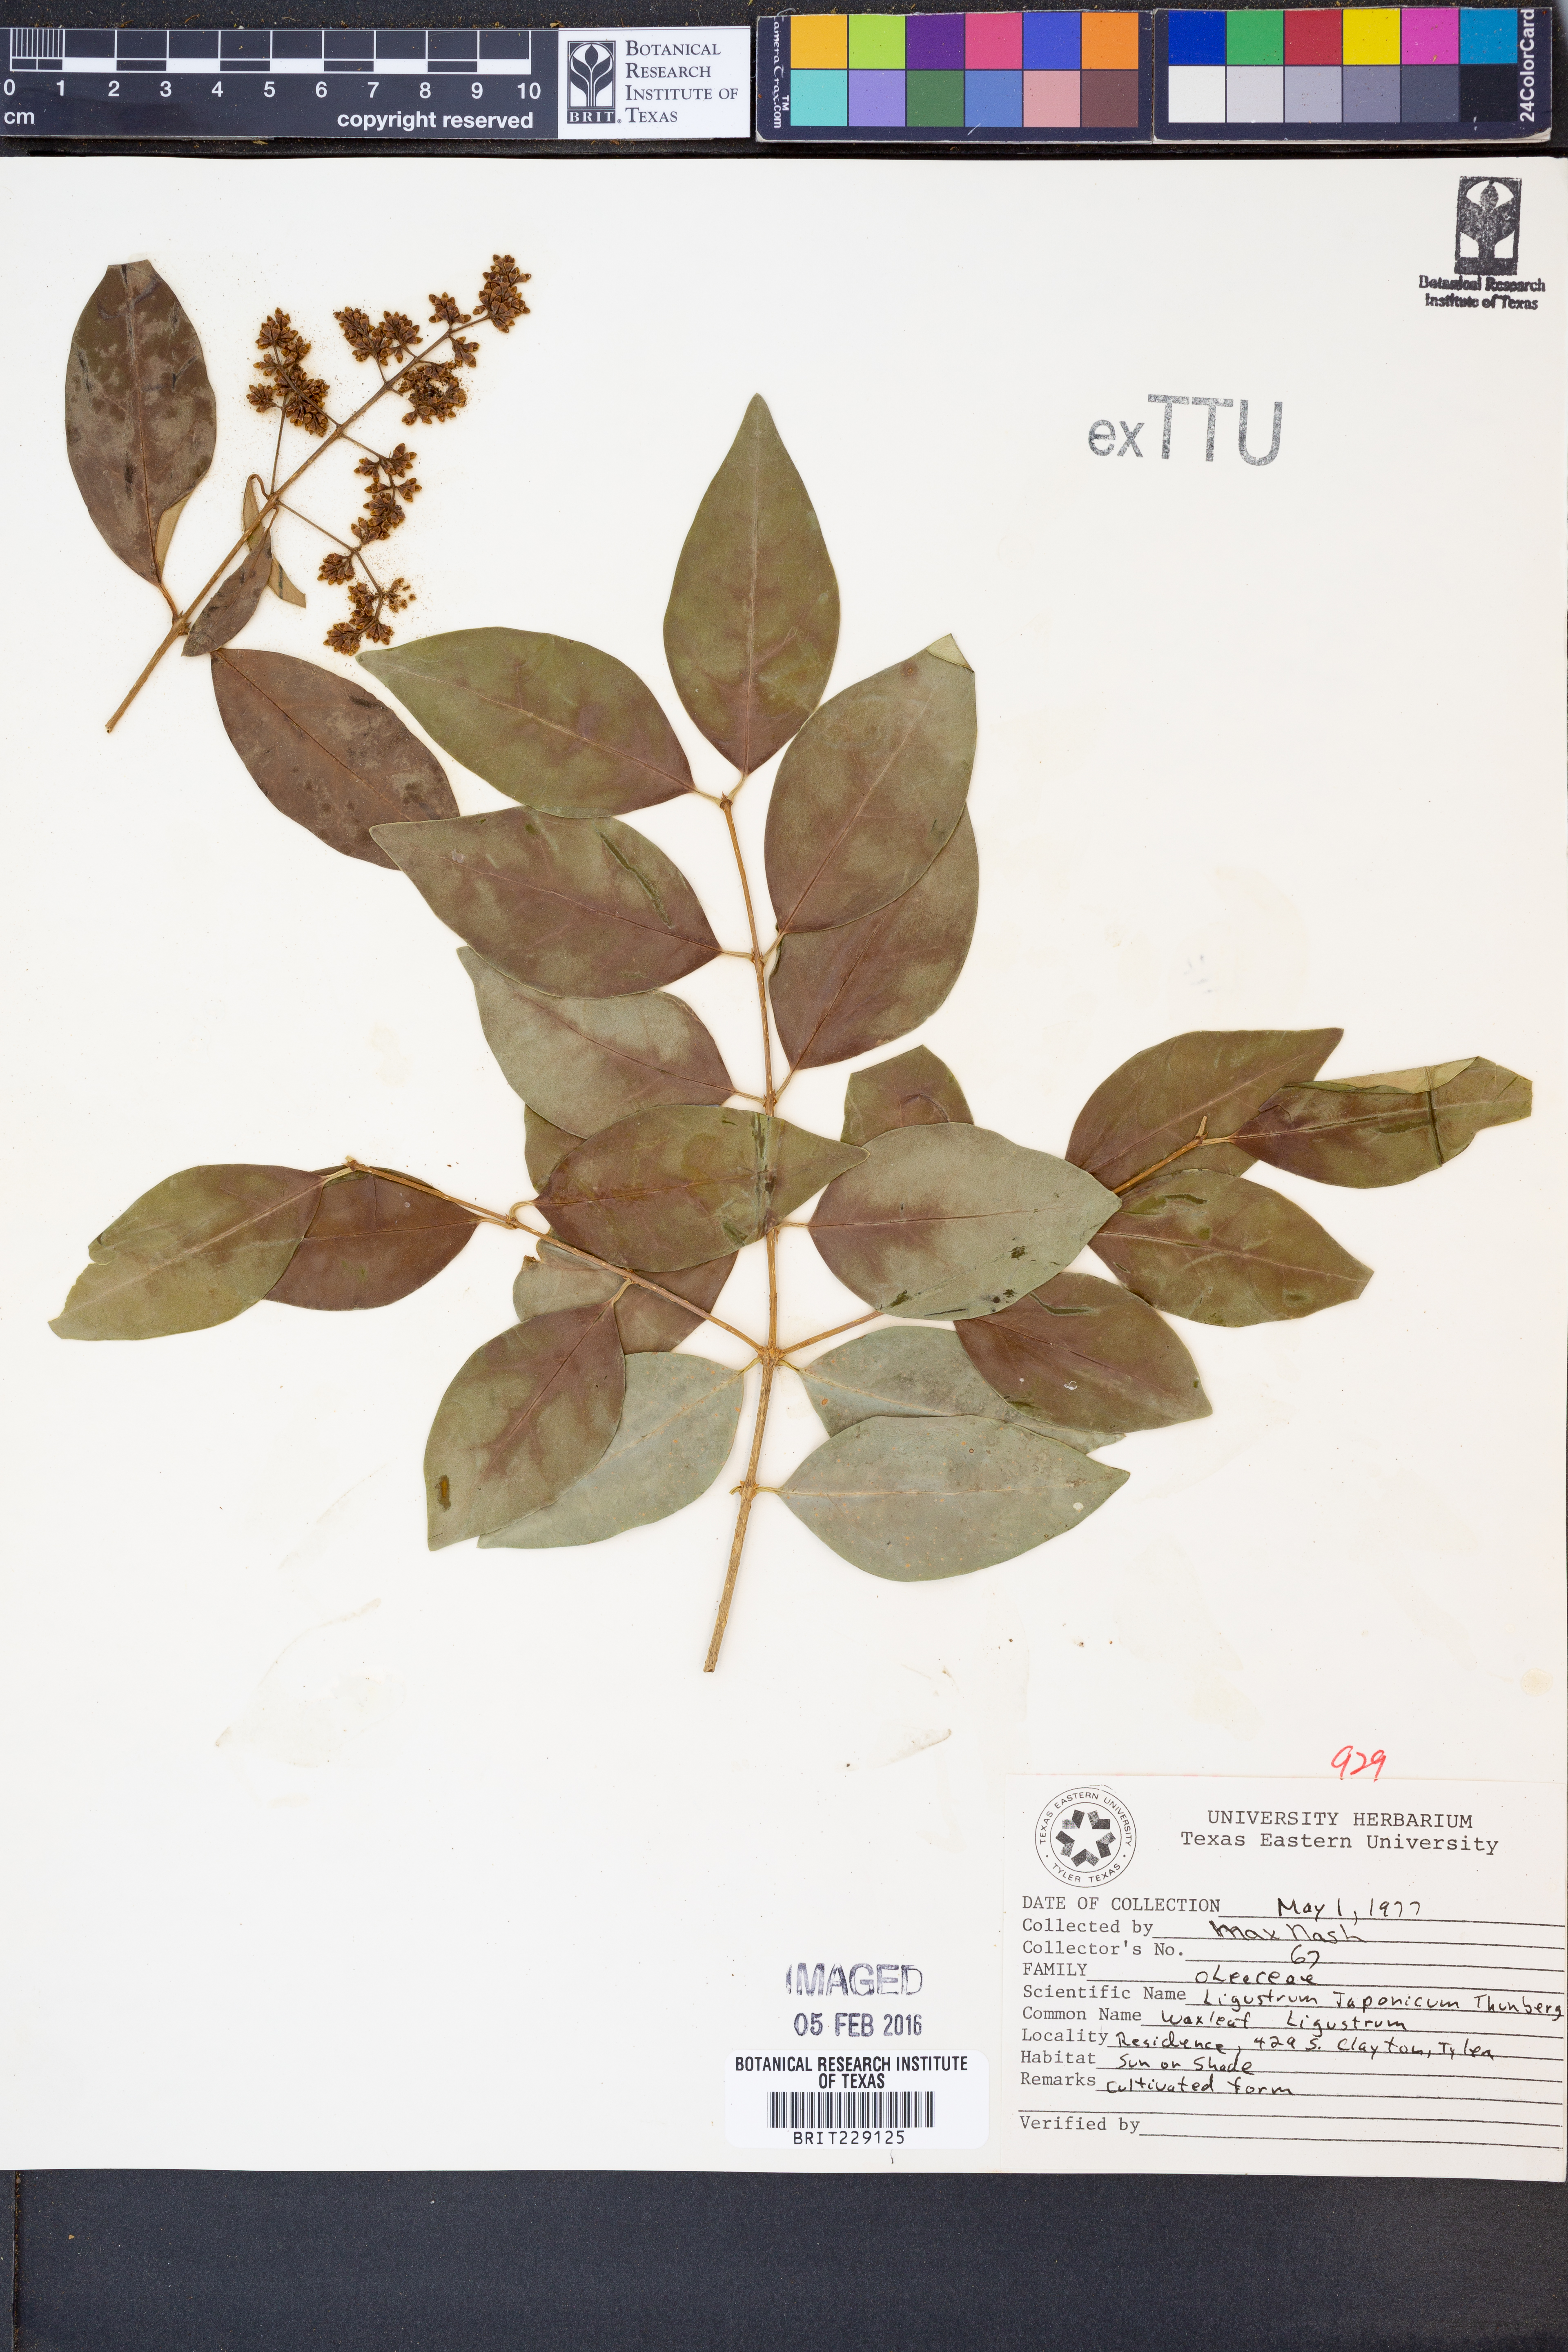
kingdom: Plantae
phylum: Tracheophyta
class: Magnoliopsida
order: Lamiales
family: Oleaceae
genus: Ligustrum
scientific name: Ligustrum japonicum
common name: Japanese privet
